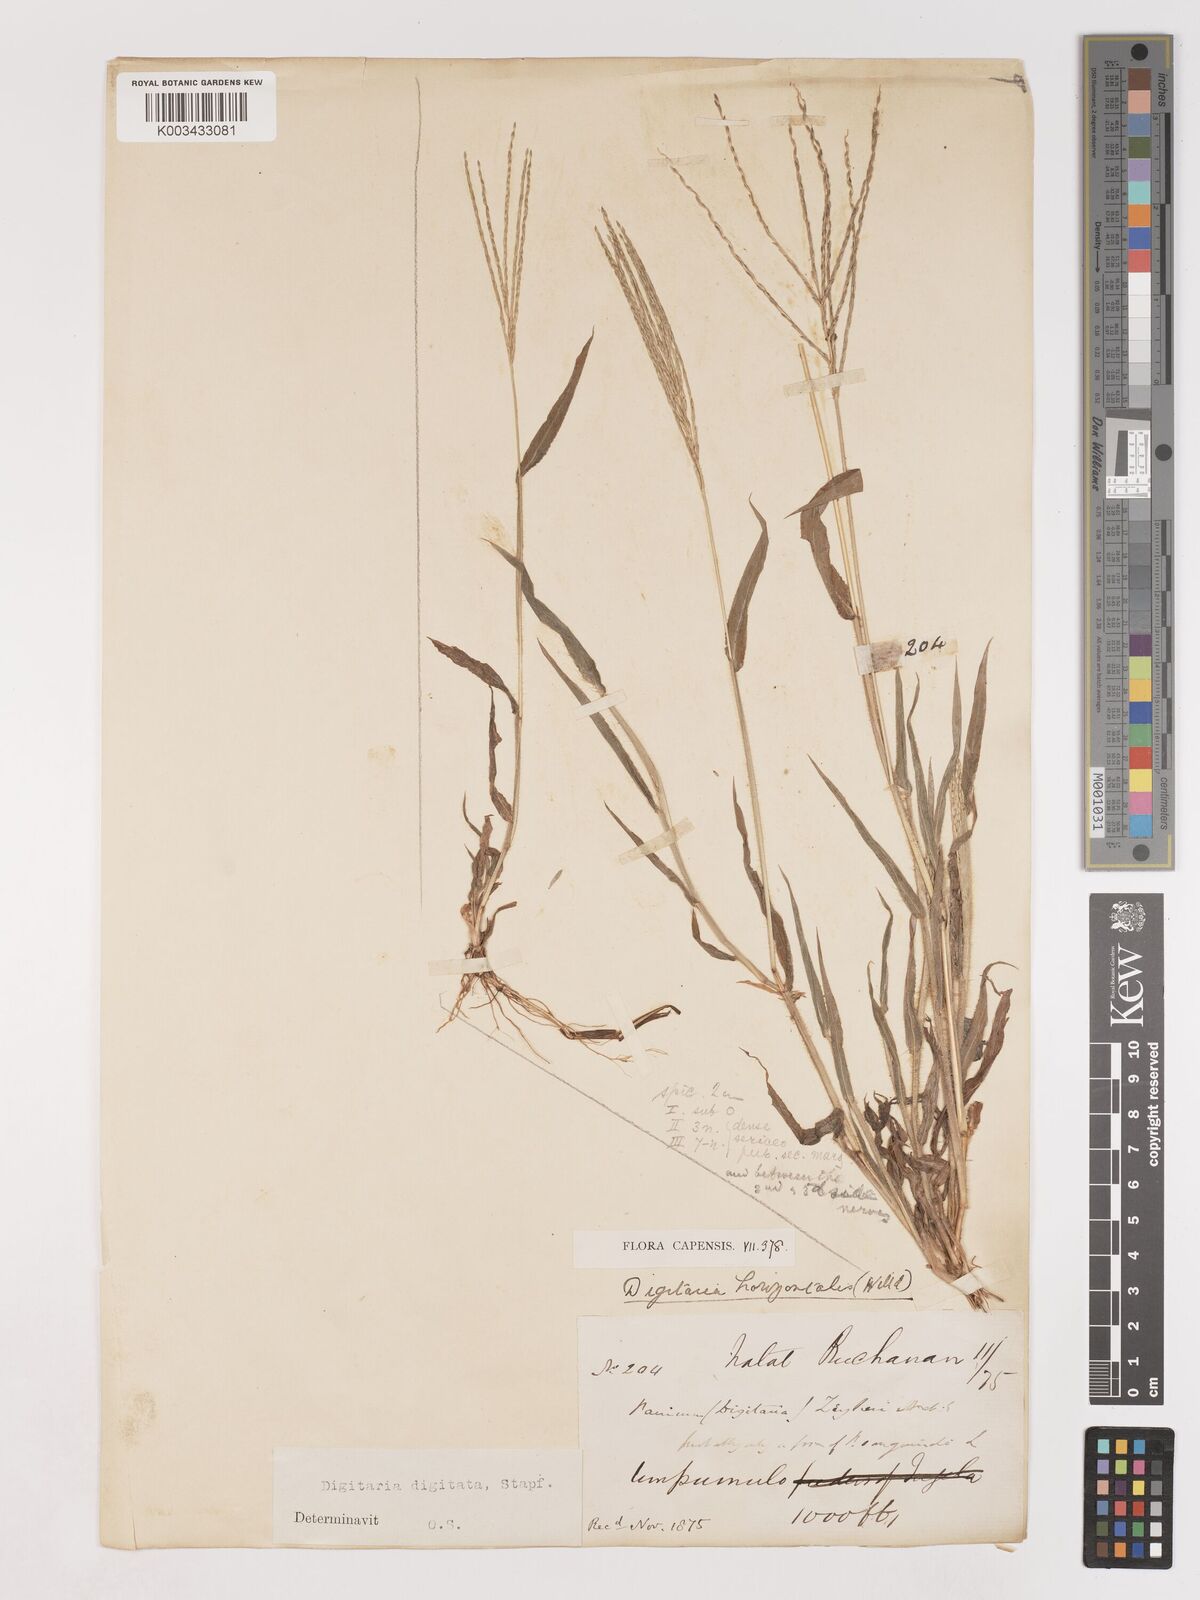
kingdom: Plantae
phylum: Tracheophyta
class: Liliopsida
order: Poales
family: Poaceae
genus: Digitaria
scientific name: Digitaria velutina
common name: Long-plume finger grass
